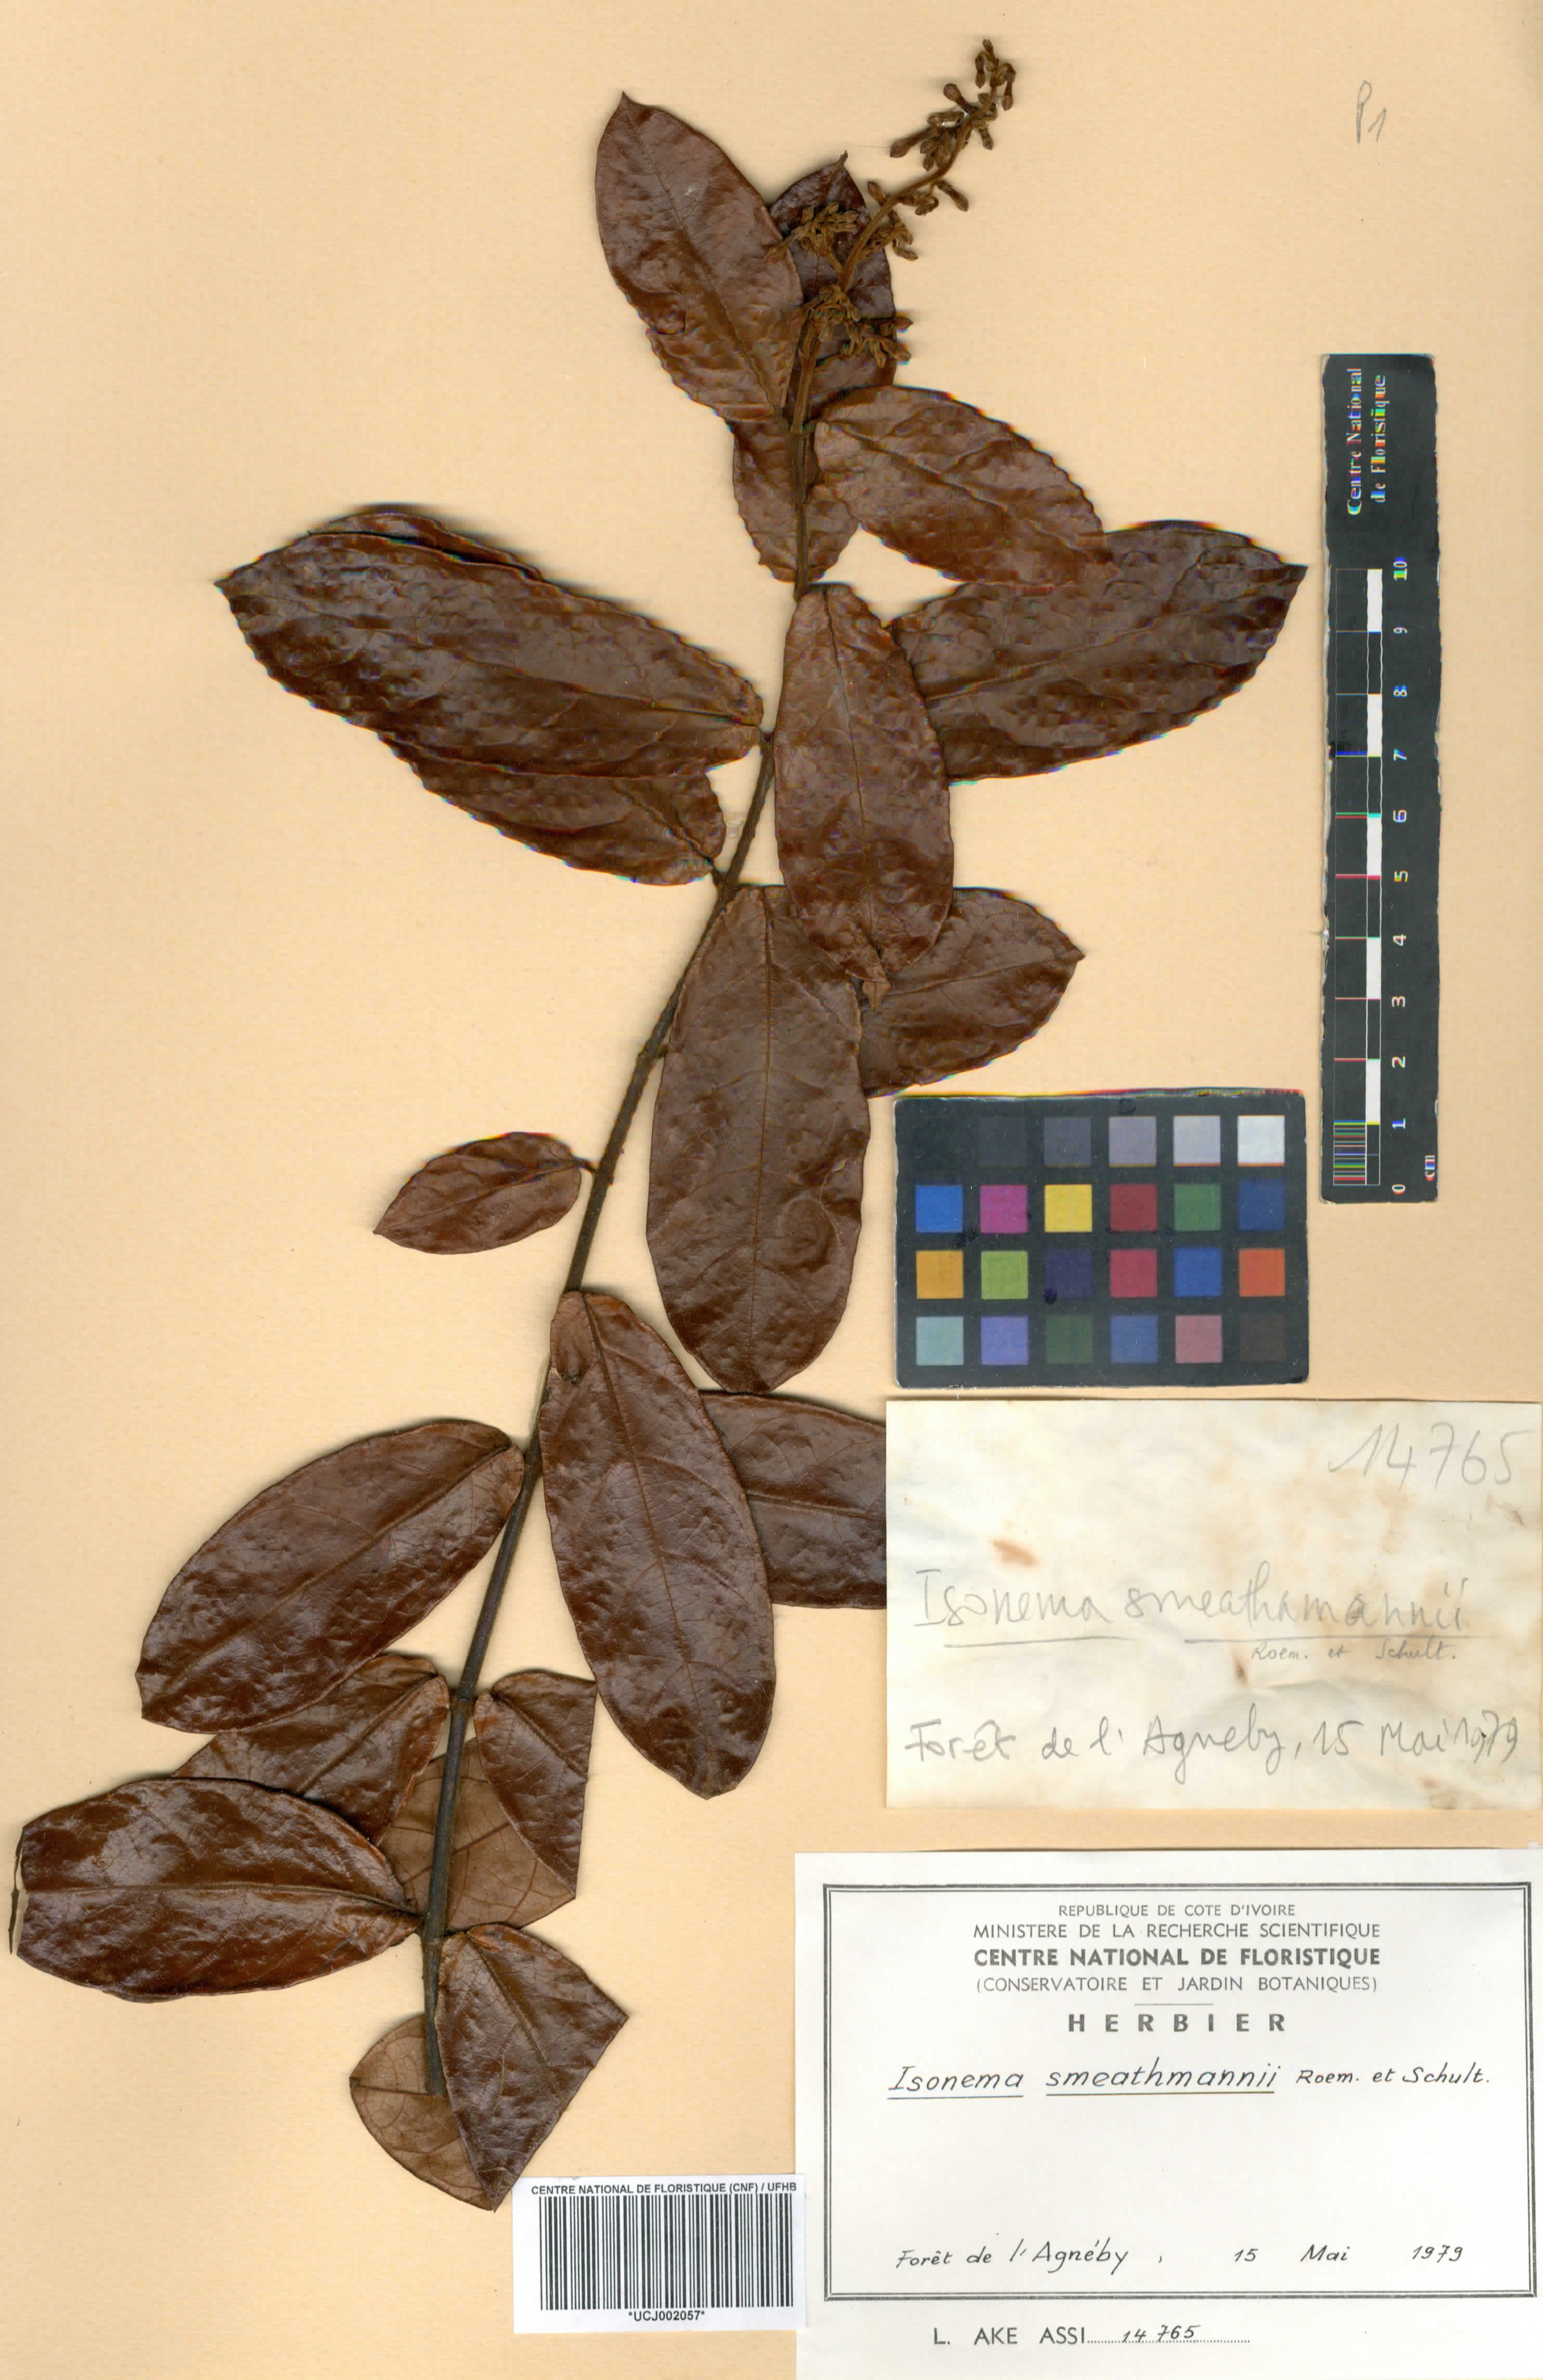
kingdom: Plantae
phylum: Tracheophyta
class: Magnoliopsida
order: Gentianales
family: Apocynaceae
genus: Isonema
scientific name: Isonema smeathmannii
